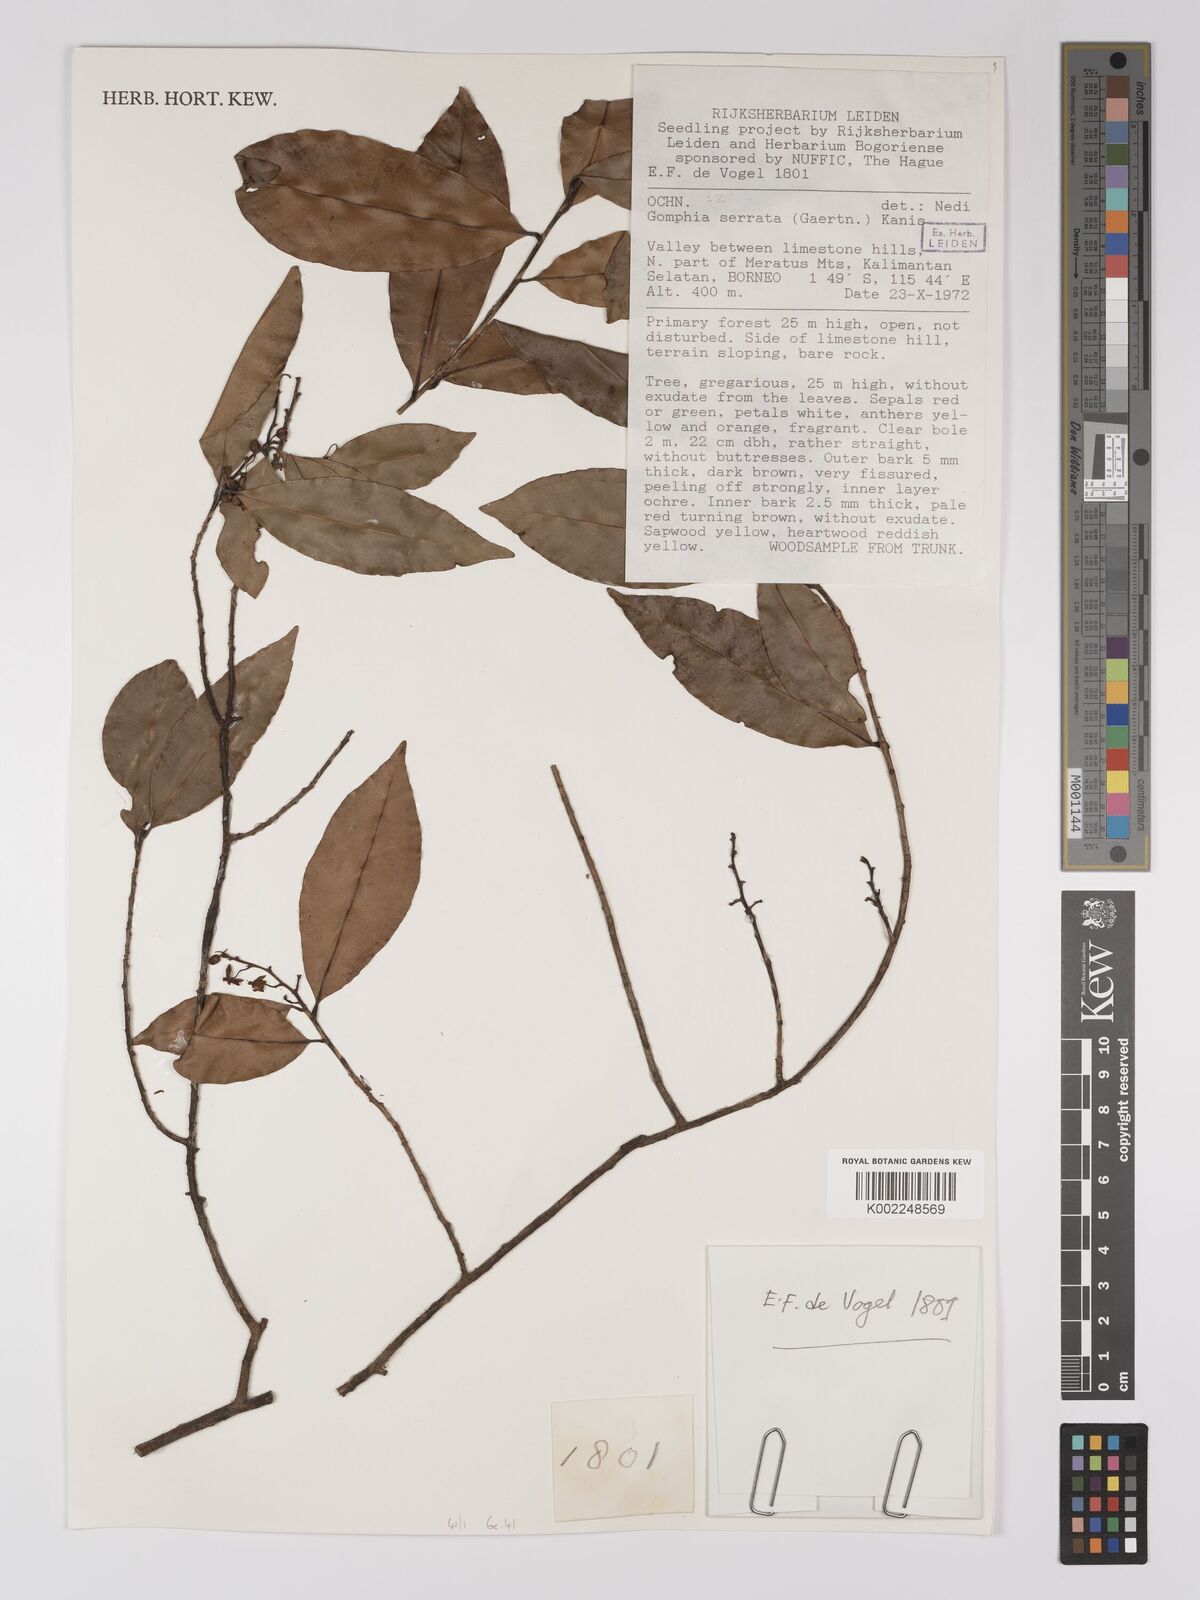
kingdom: Plantae
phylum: Tracheophyta
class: Magnoliopsida
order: Malpighiales
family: Ochnaceae
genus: Campylospermum
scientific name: Campylospermum
